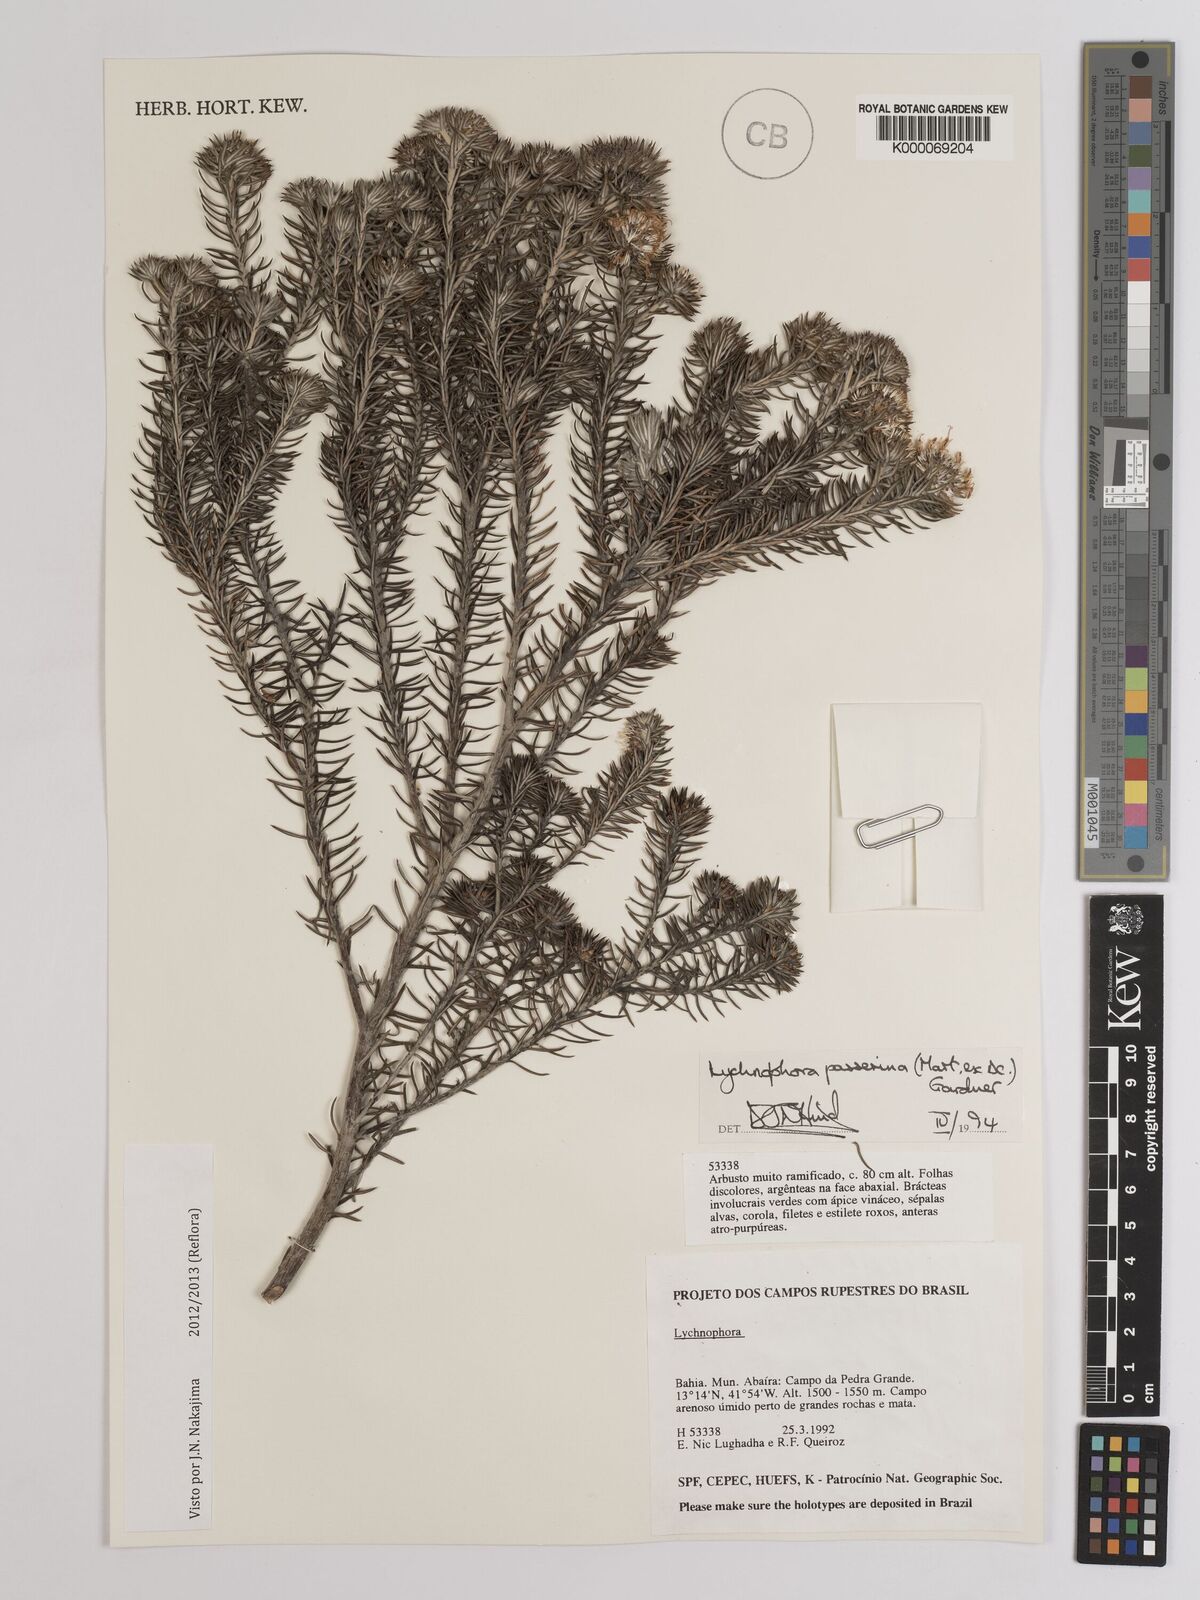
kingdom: Plantae
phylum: Tracheophyta
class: Magnoliopsida
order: Asterales
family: Asteraceae
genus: Lychnophora
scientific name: Lychnophora passerina
